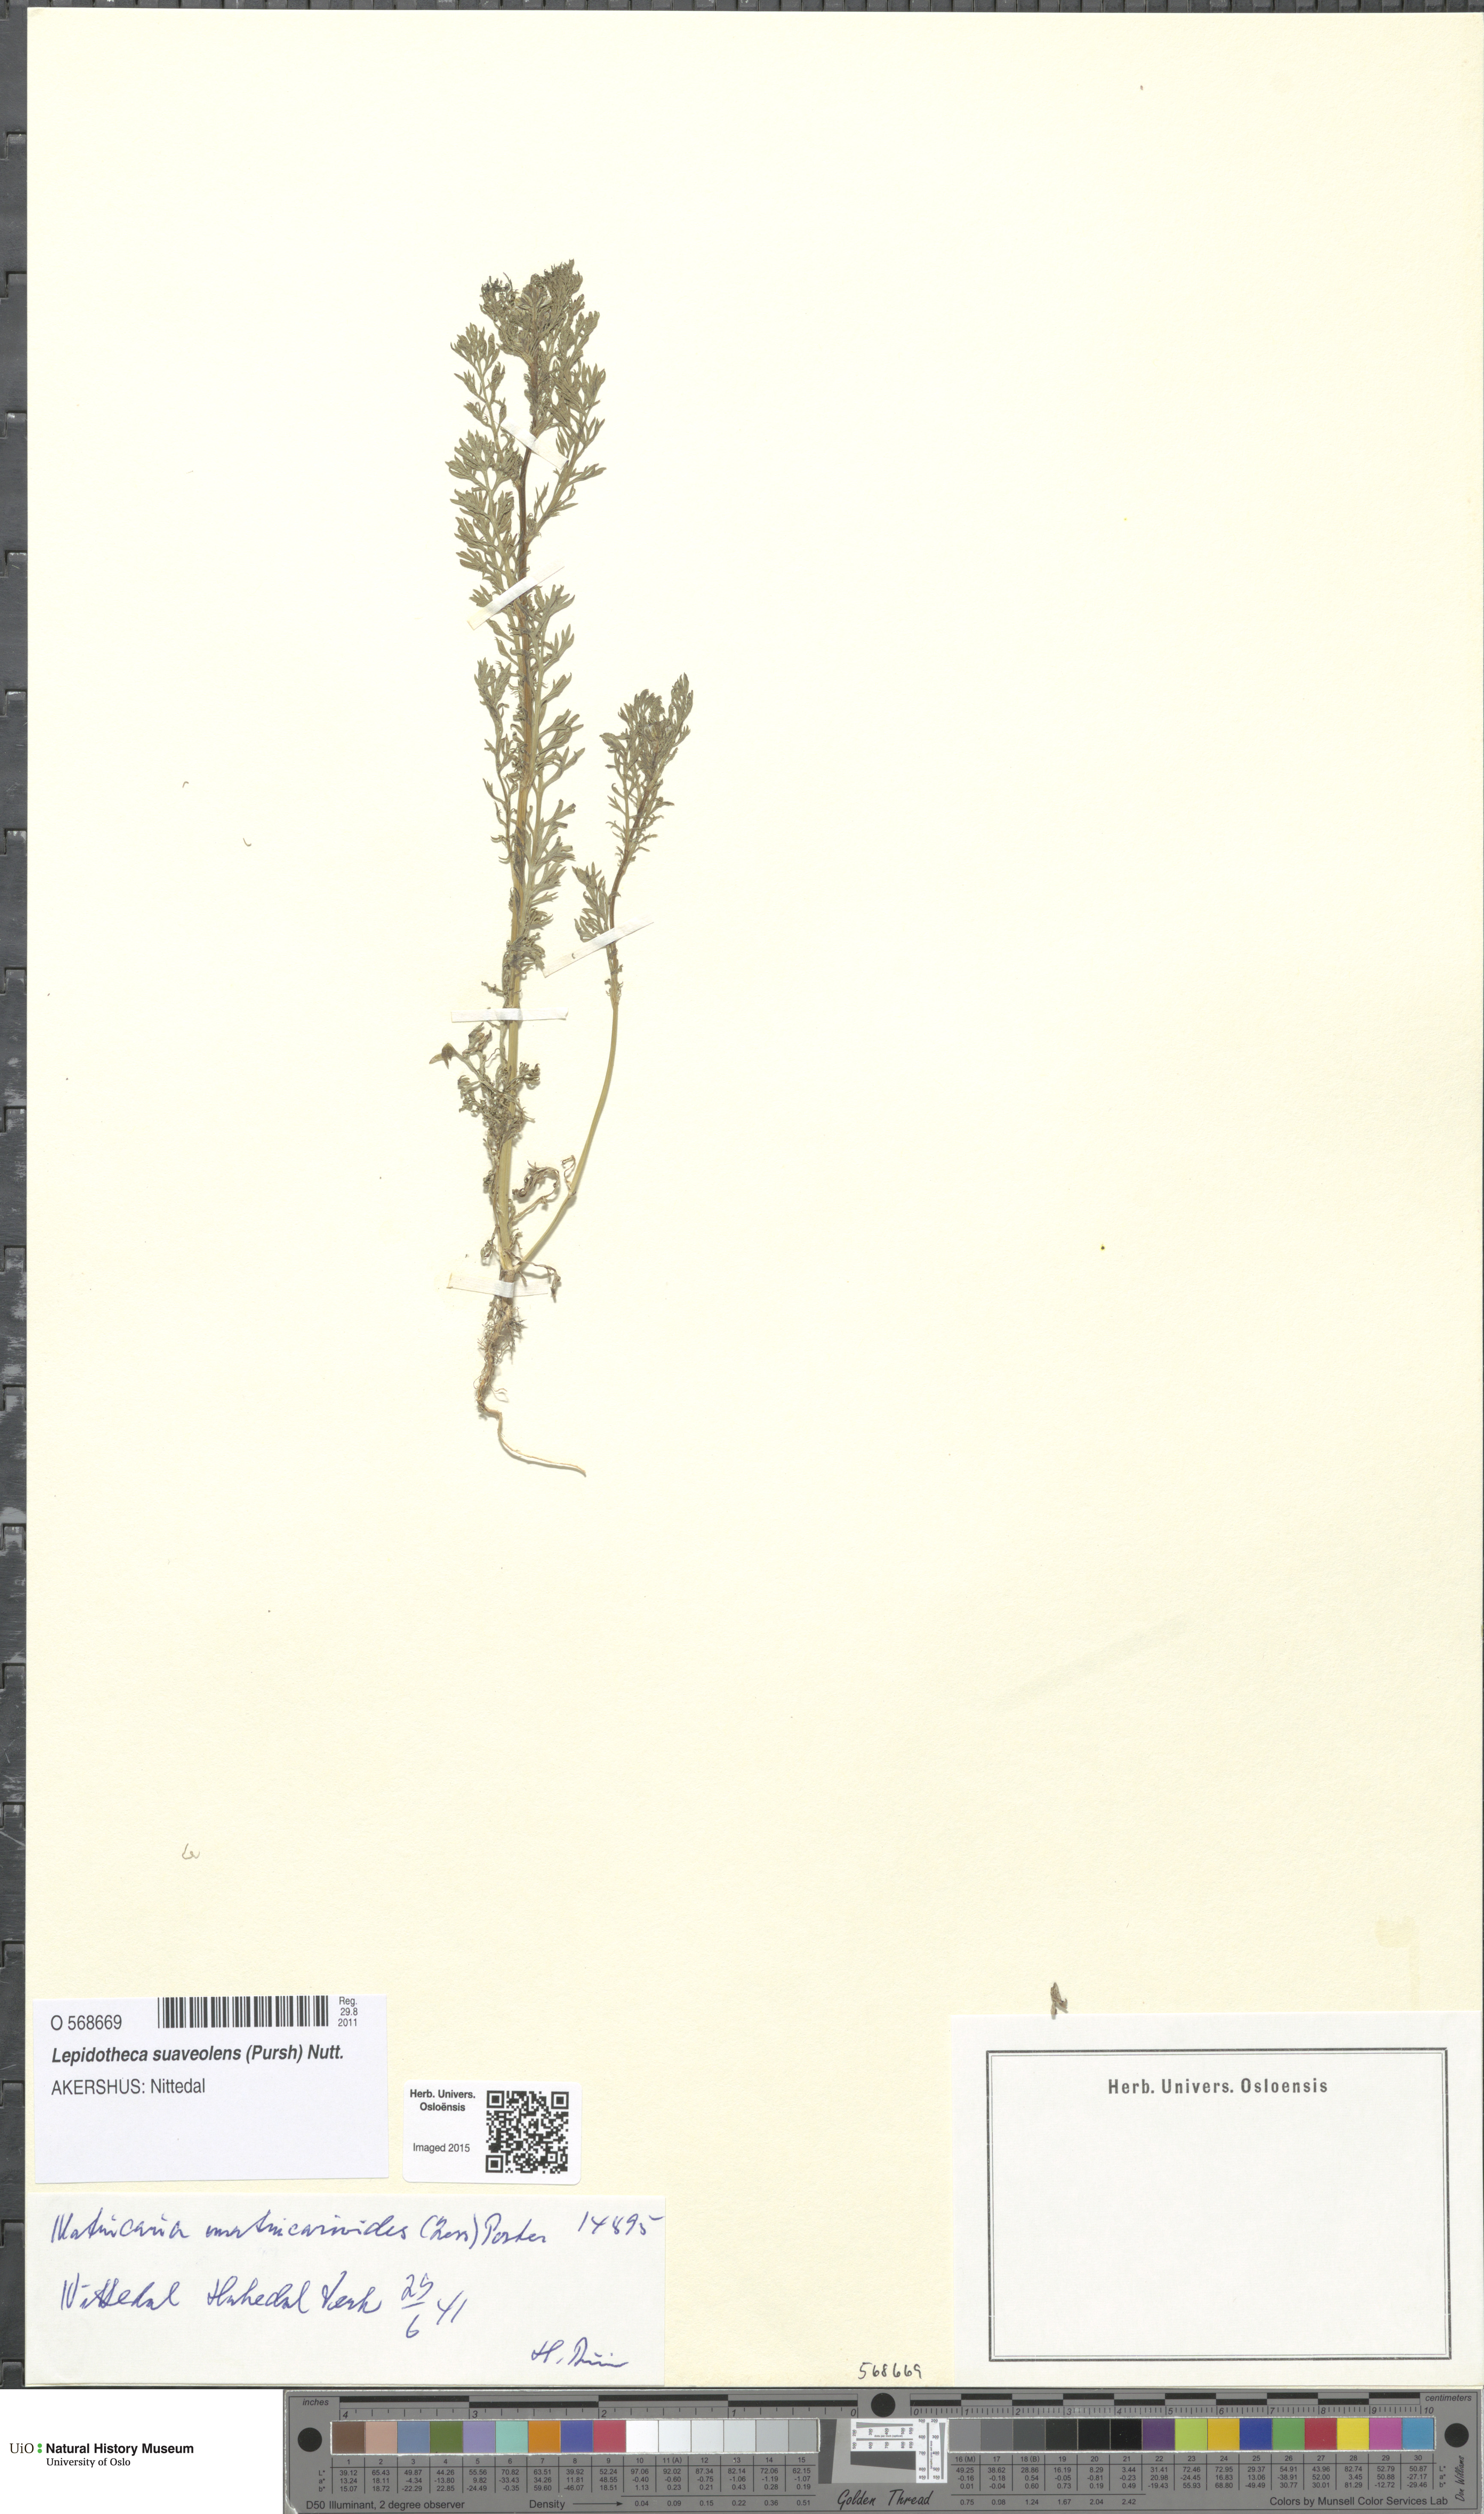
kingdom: Plantae
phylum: Tracheophyta
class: Magnoliopsida
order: Asterales
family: Asteraceae
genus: Matricaria
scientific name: Matricaria discoidea
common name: Disc mayweed
